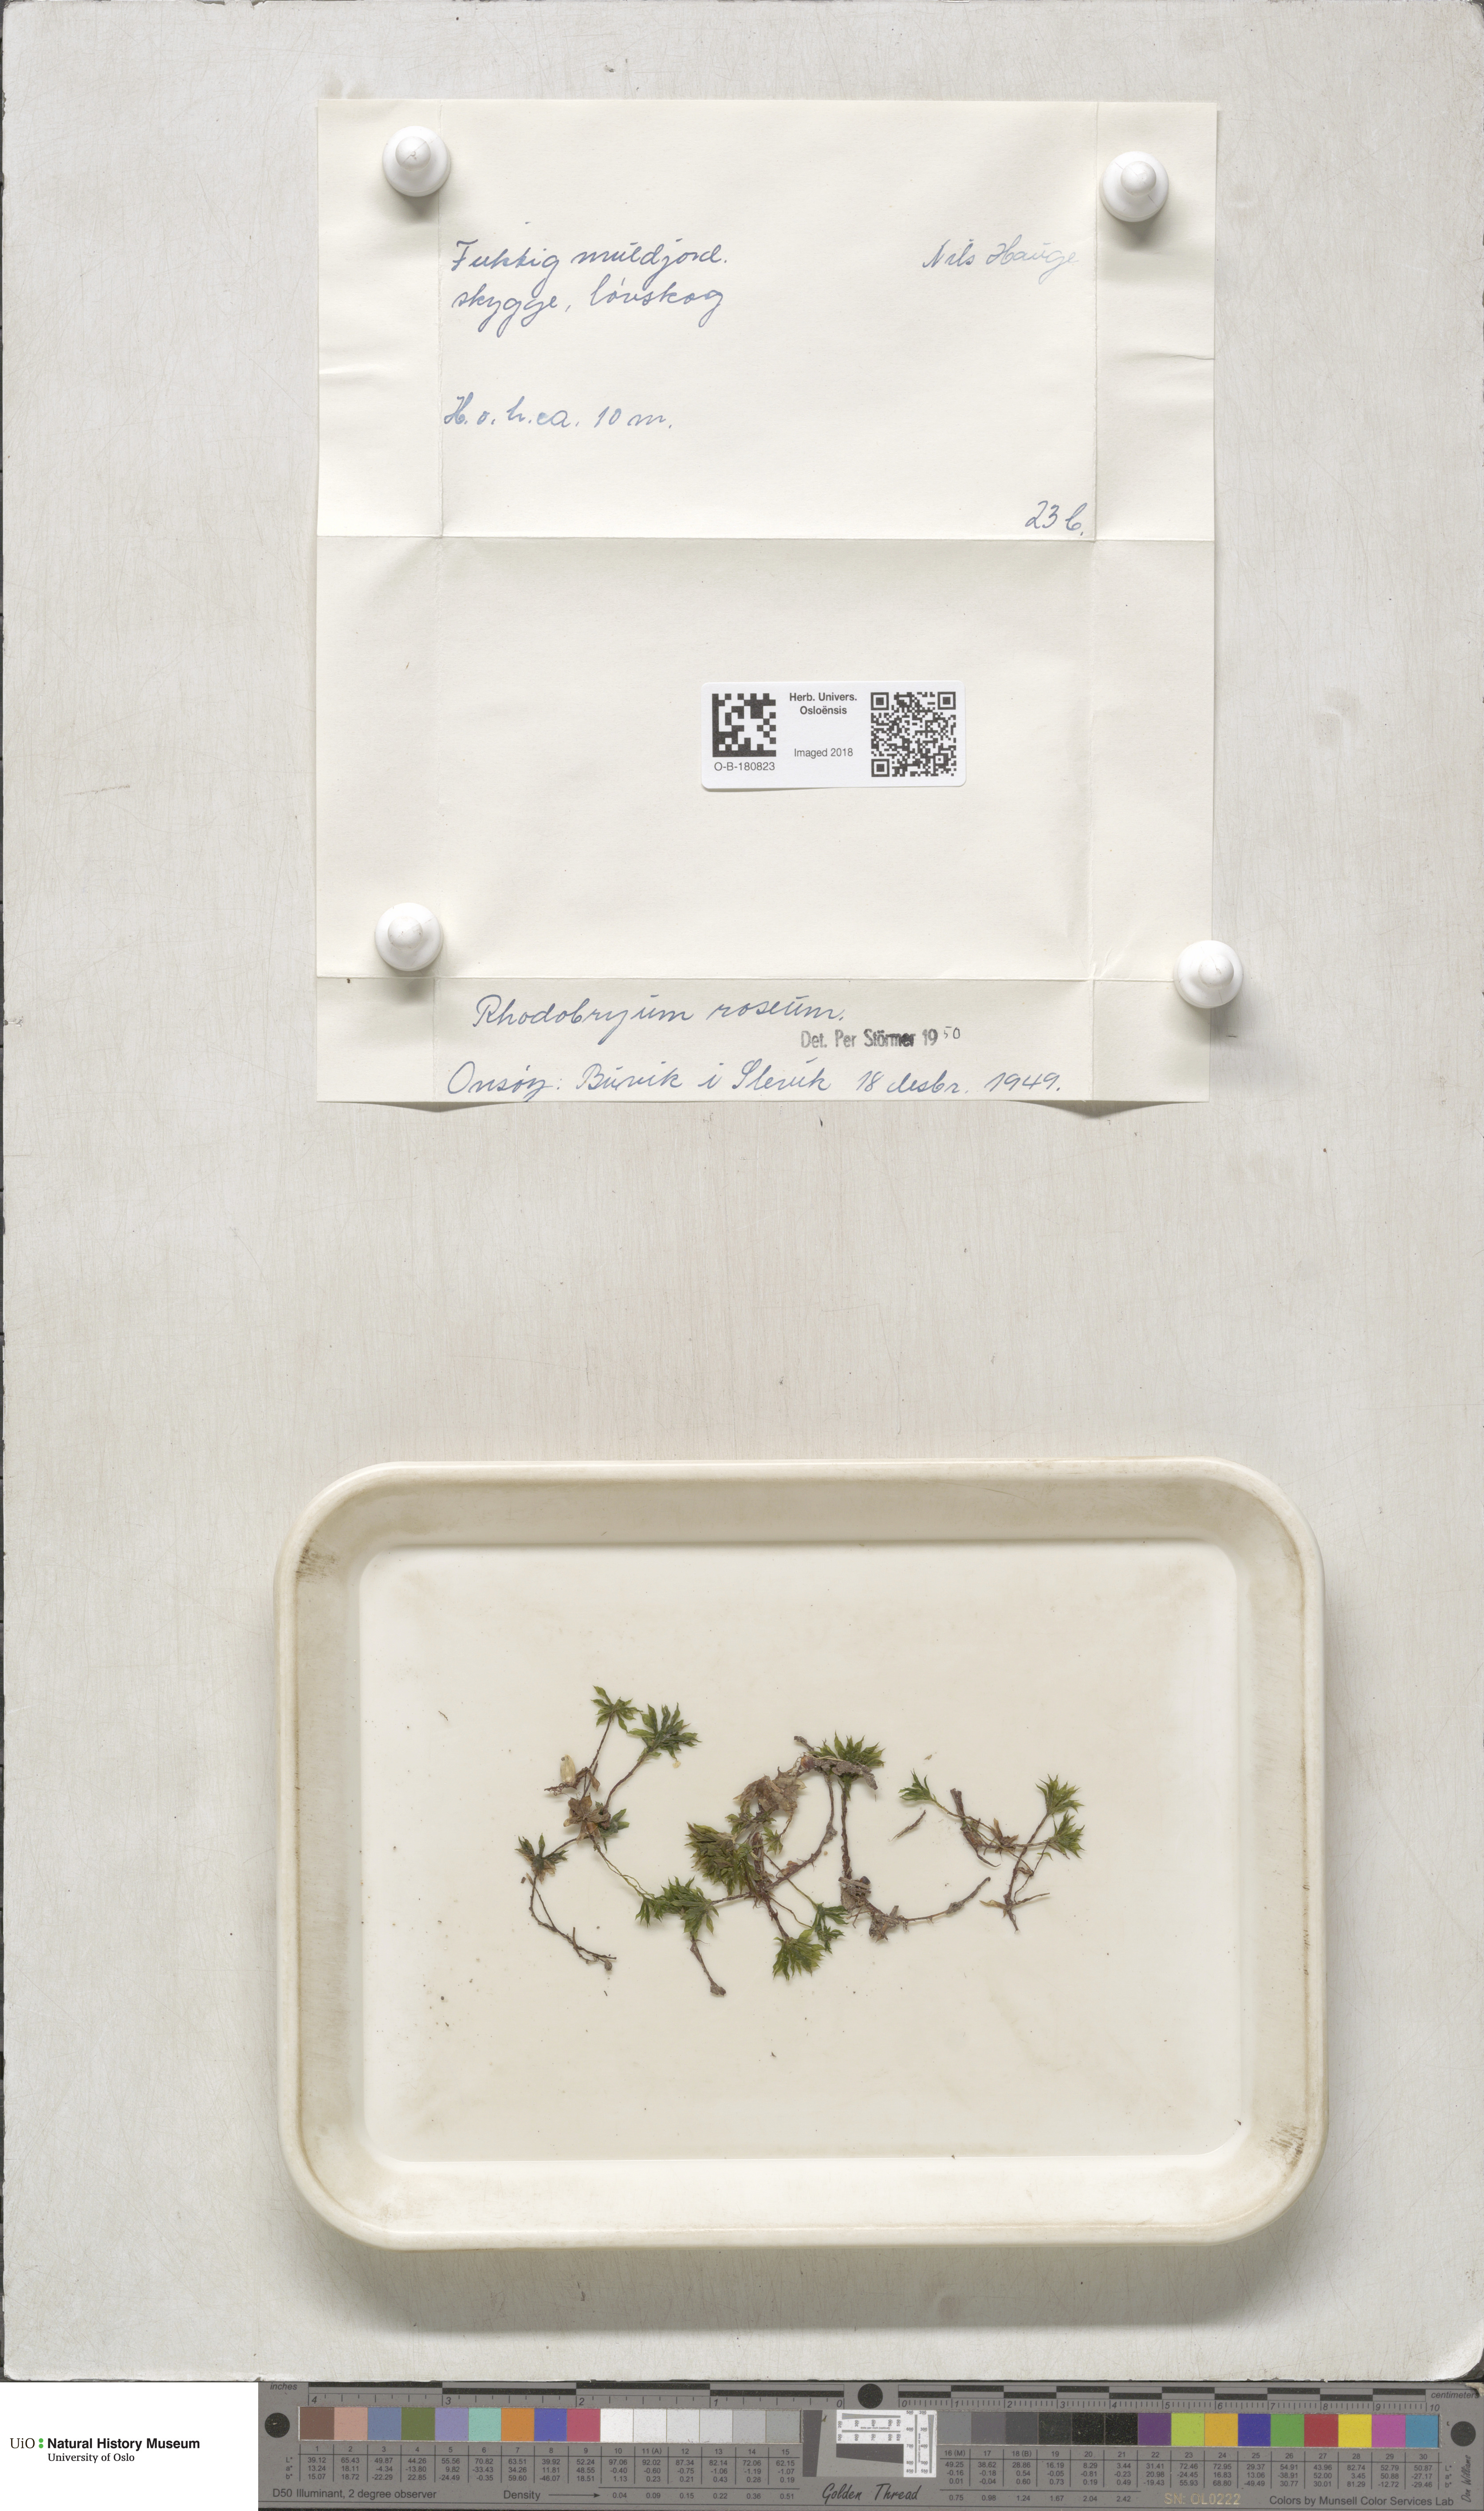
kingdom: Plantae
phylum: Bryophyta
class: Bryopsida
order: Bryales
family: Bryaceae
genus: Rhodobryum
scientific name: Rhodobryum roseum
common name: Rose-moss
